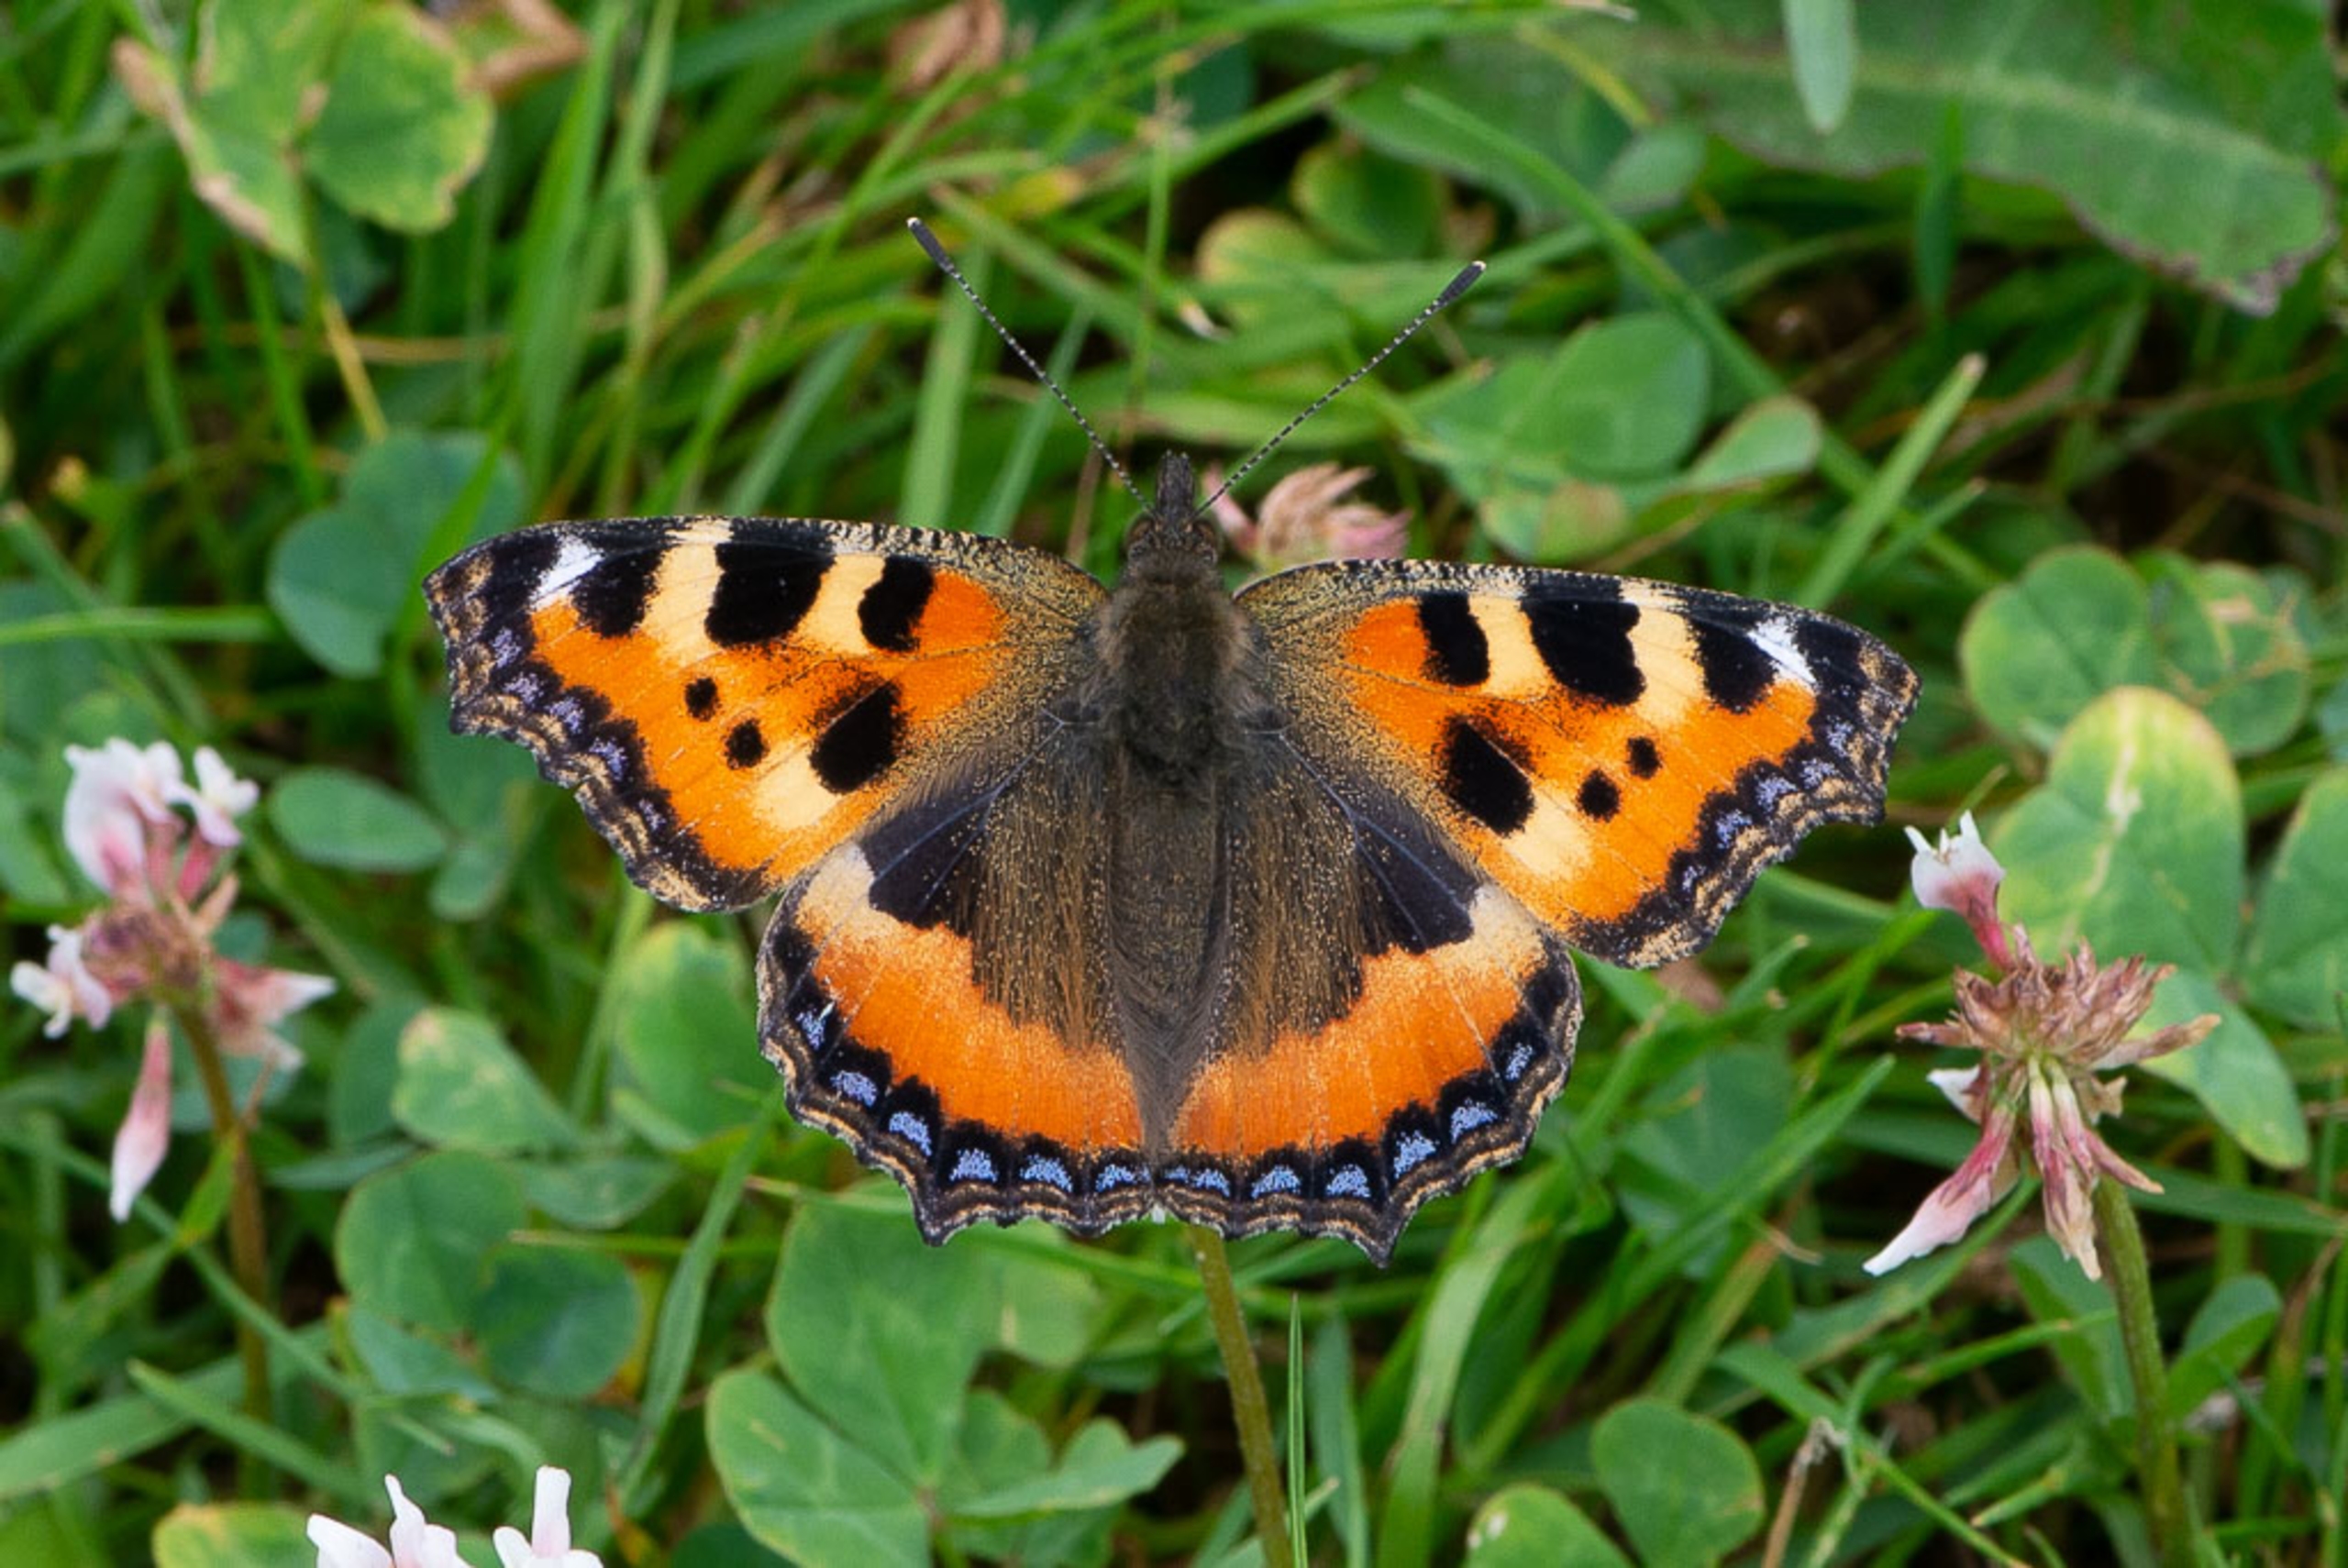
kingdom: Animalia
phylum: Arthropoda
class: Insecta
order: Lepidoptera
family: Nymphalidae
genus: Aglais
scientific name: Aglais urticae
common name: Nældens takvinge
